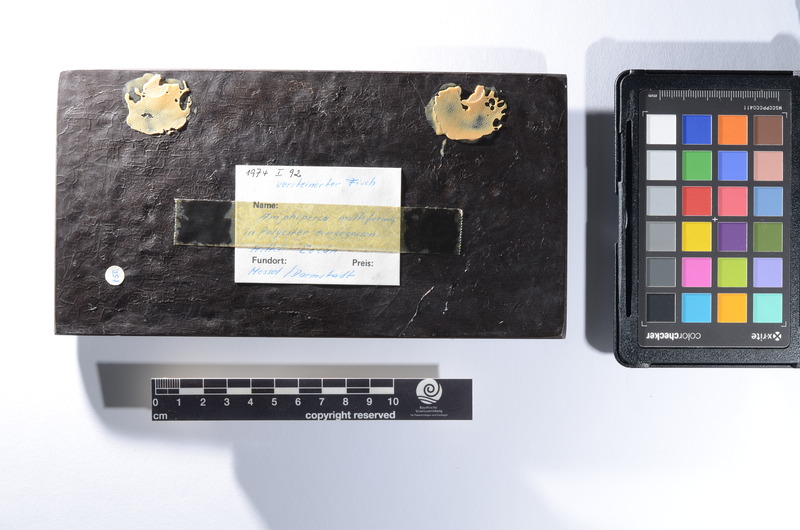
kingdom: Animalia
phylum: Chordata
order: Perciformes
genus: Amphiperca
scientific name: Amphiperca
